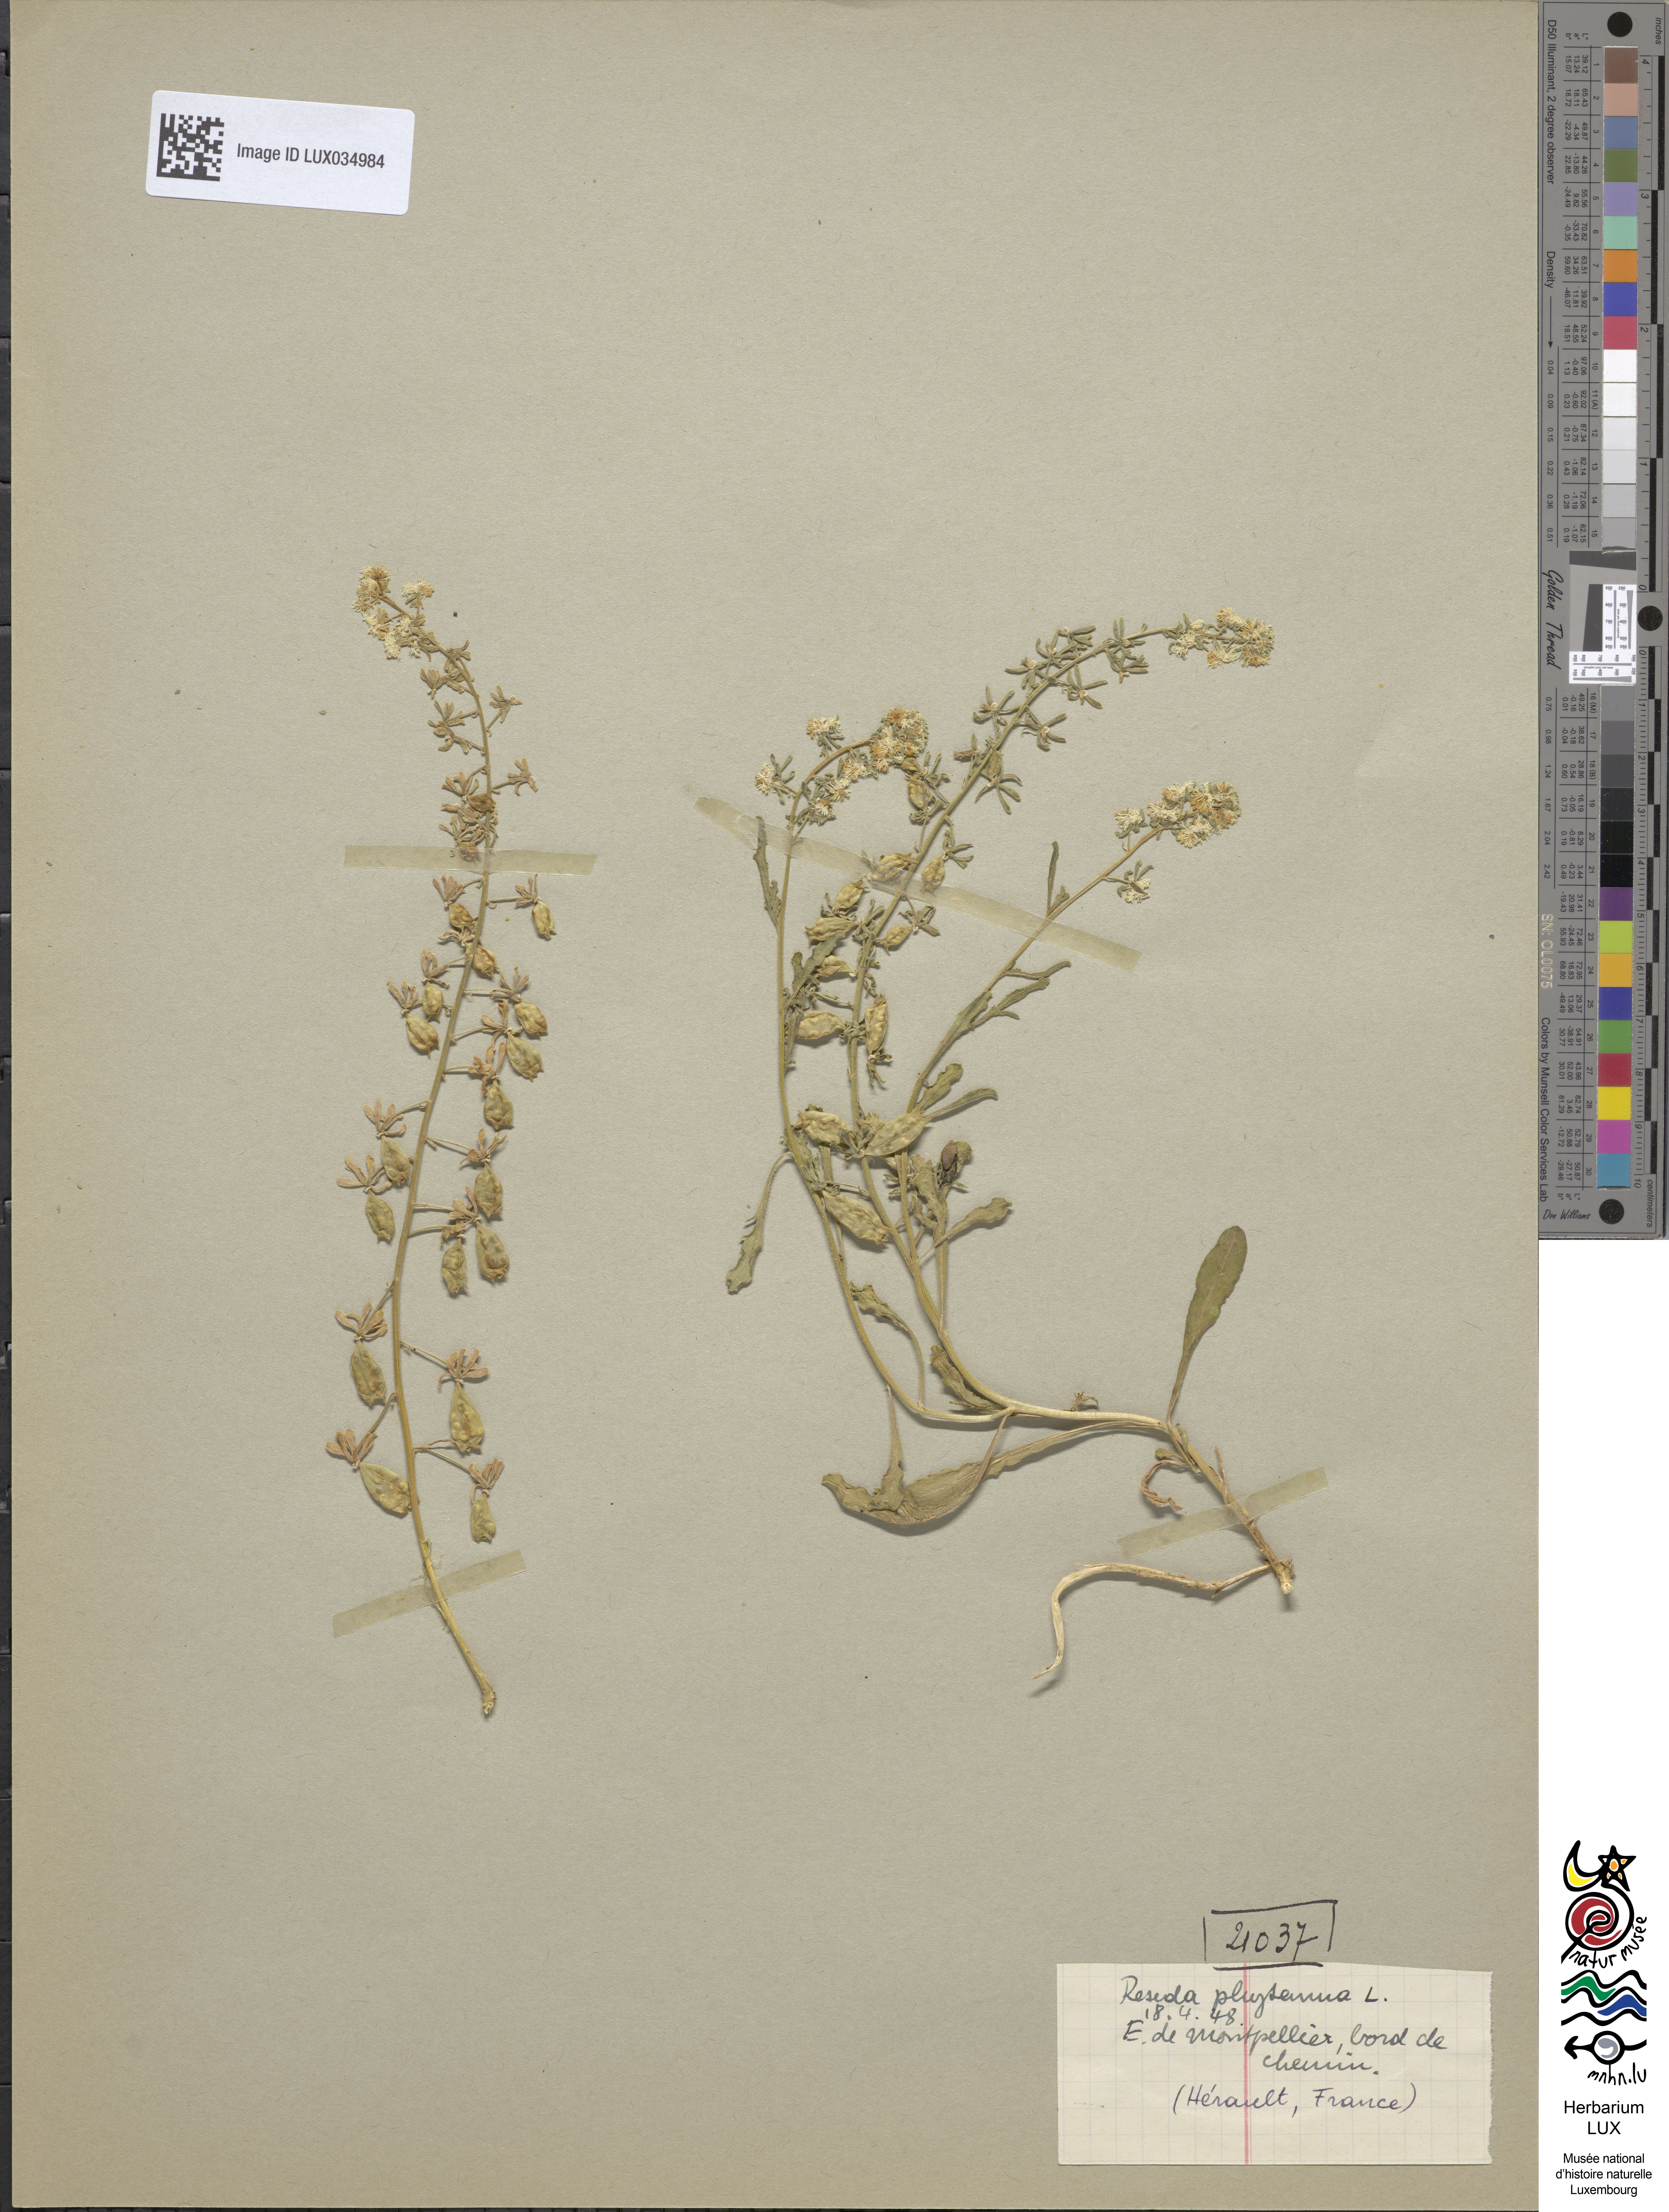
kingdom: Plantae
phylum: Tracheophyta
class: Magnoliopsida
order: Brassicales
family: Resedaceae
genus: Reseda
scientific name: Reseda phyteuma
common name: Corn mignonette
